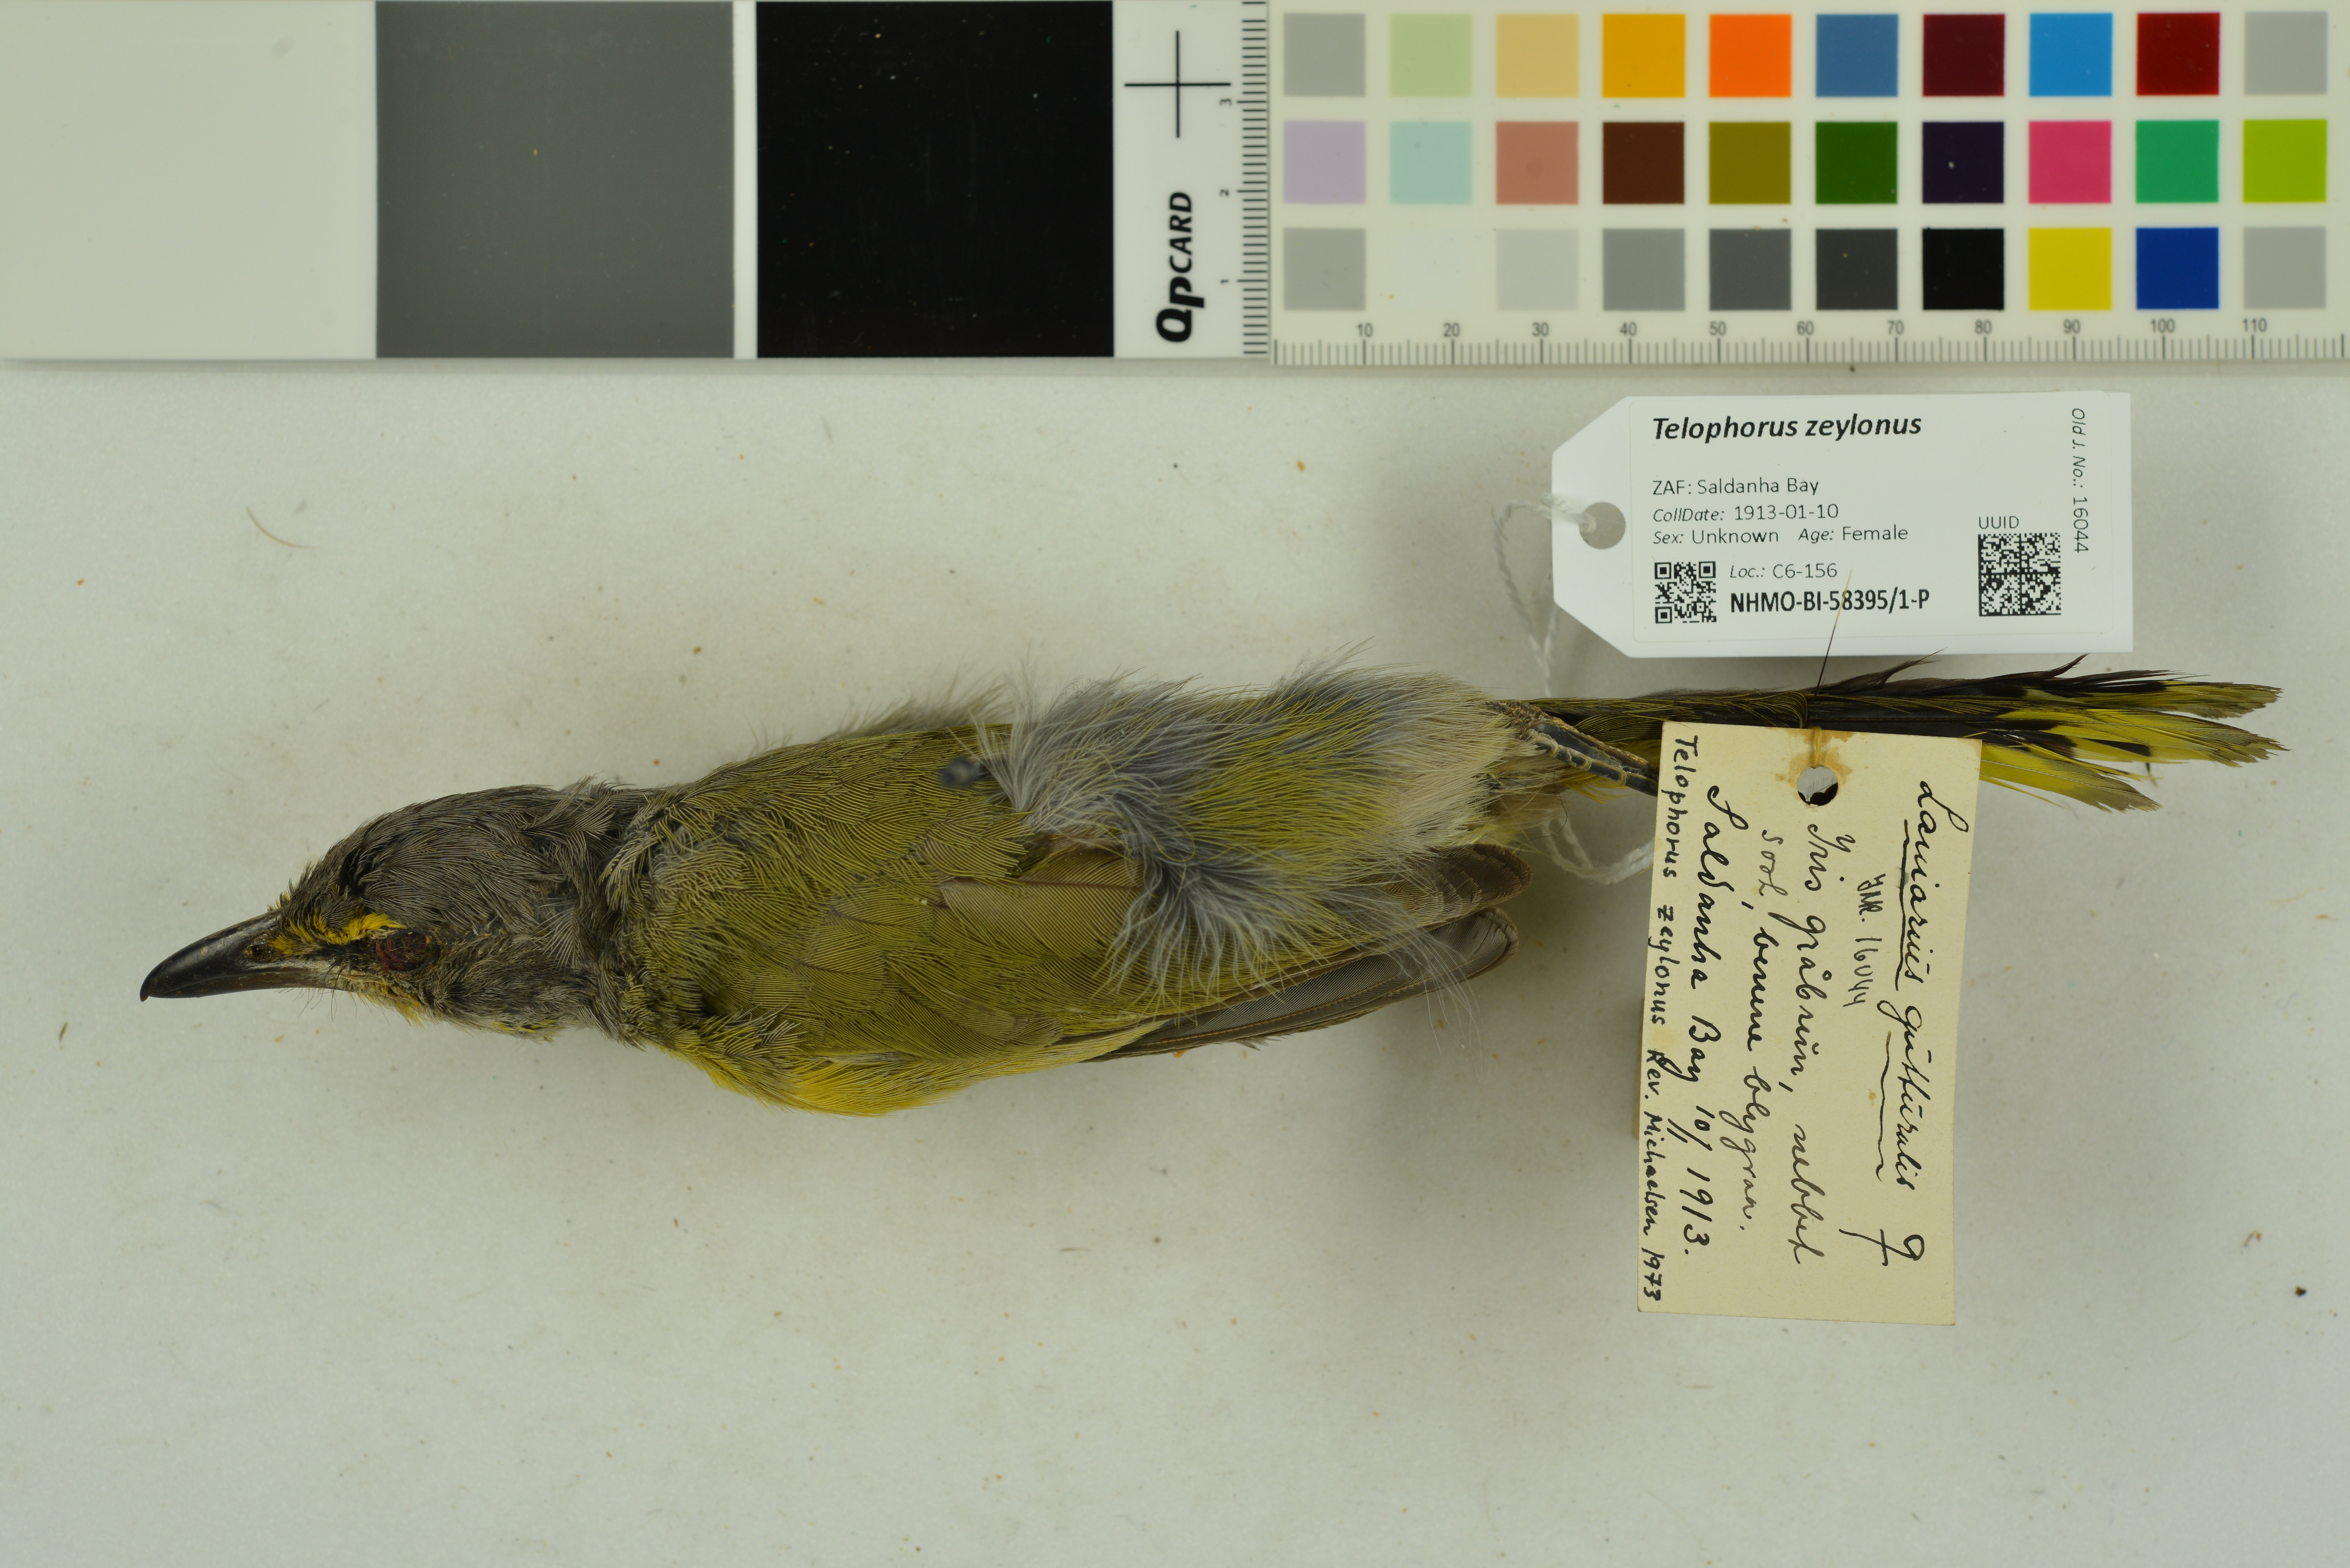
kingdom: Animalia
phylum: Chordata
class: Aves
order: Passeriformes
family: Malaconotidae
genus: Telophorus
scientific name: Telophorus zeylonus
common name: Bokmakierie
